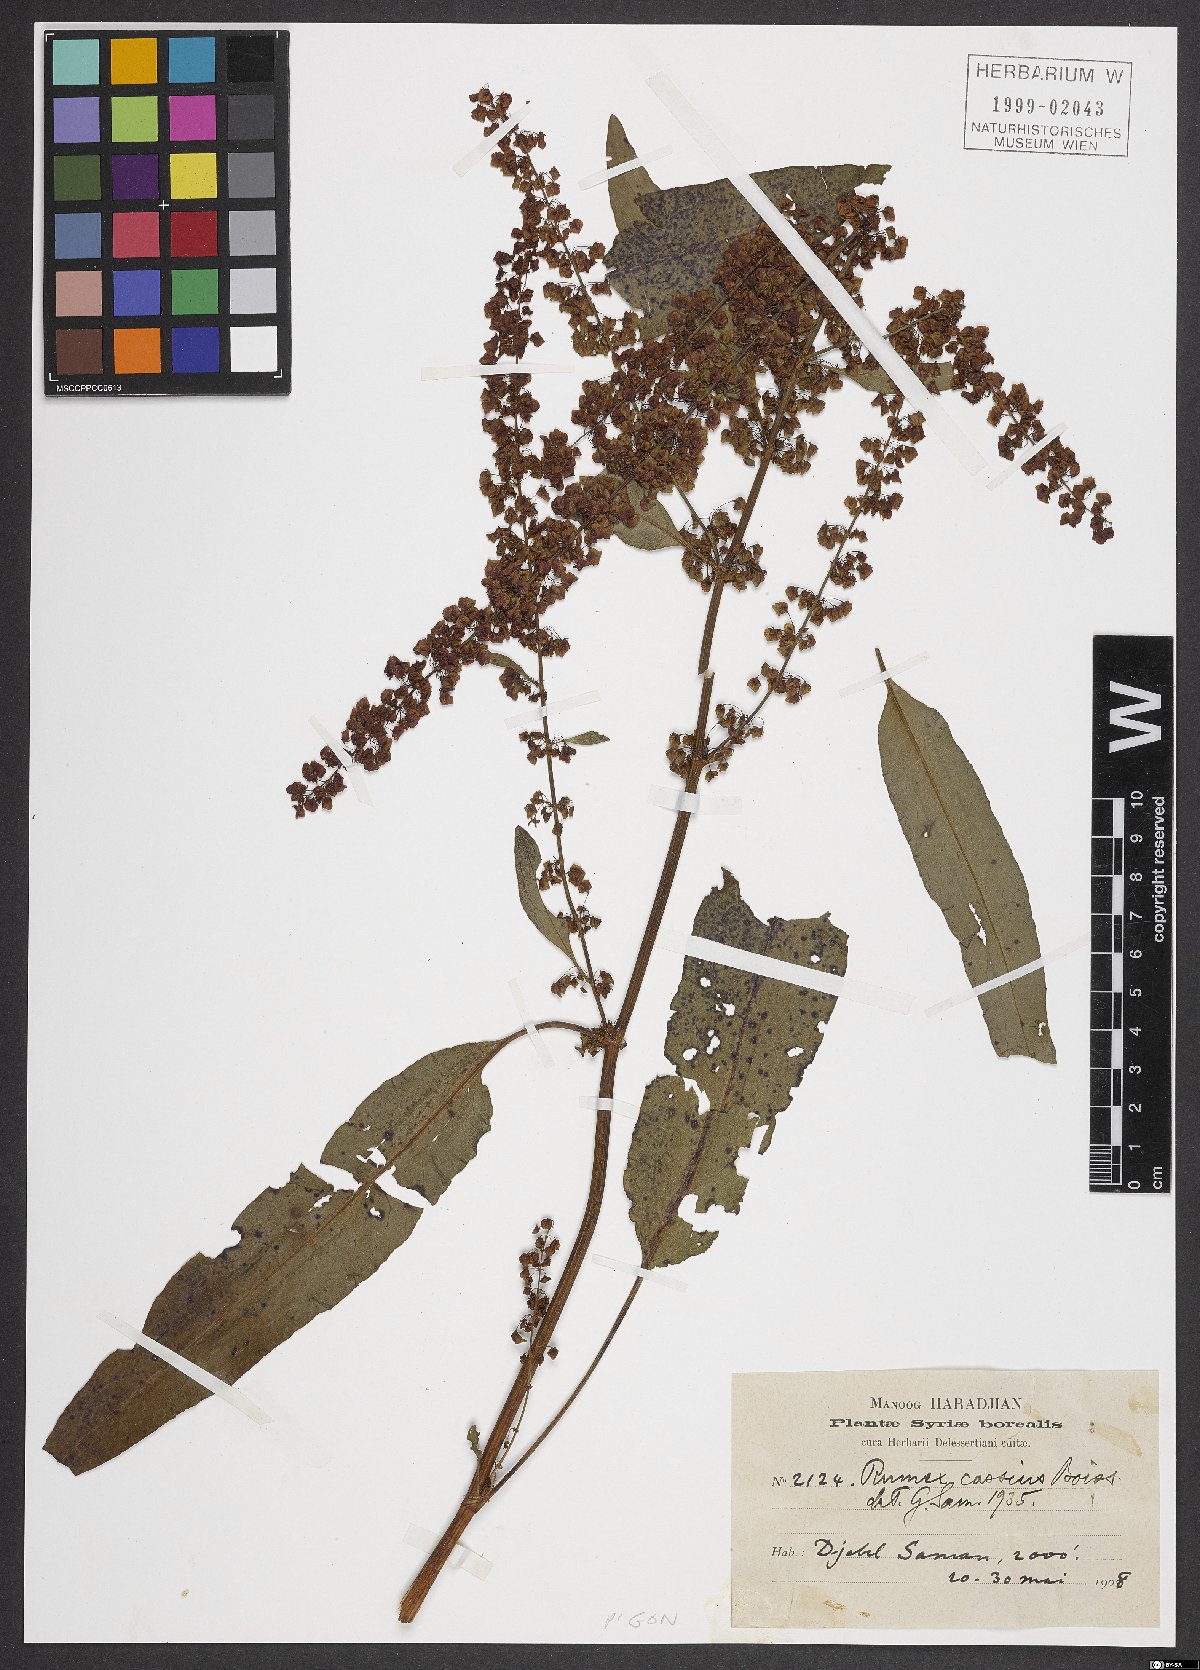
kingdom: Plantae
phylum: Tracheophyta
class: Magnoliopsida
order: Caryophyllales
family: Polygonaceae
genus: Rumex
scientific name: Rumex
